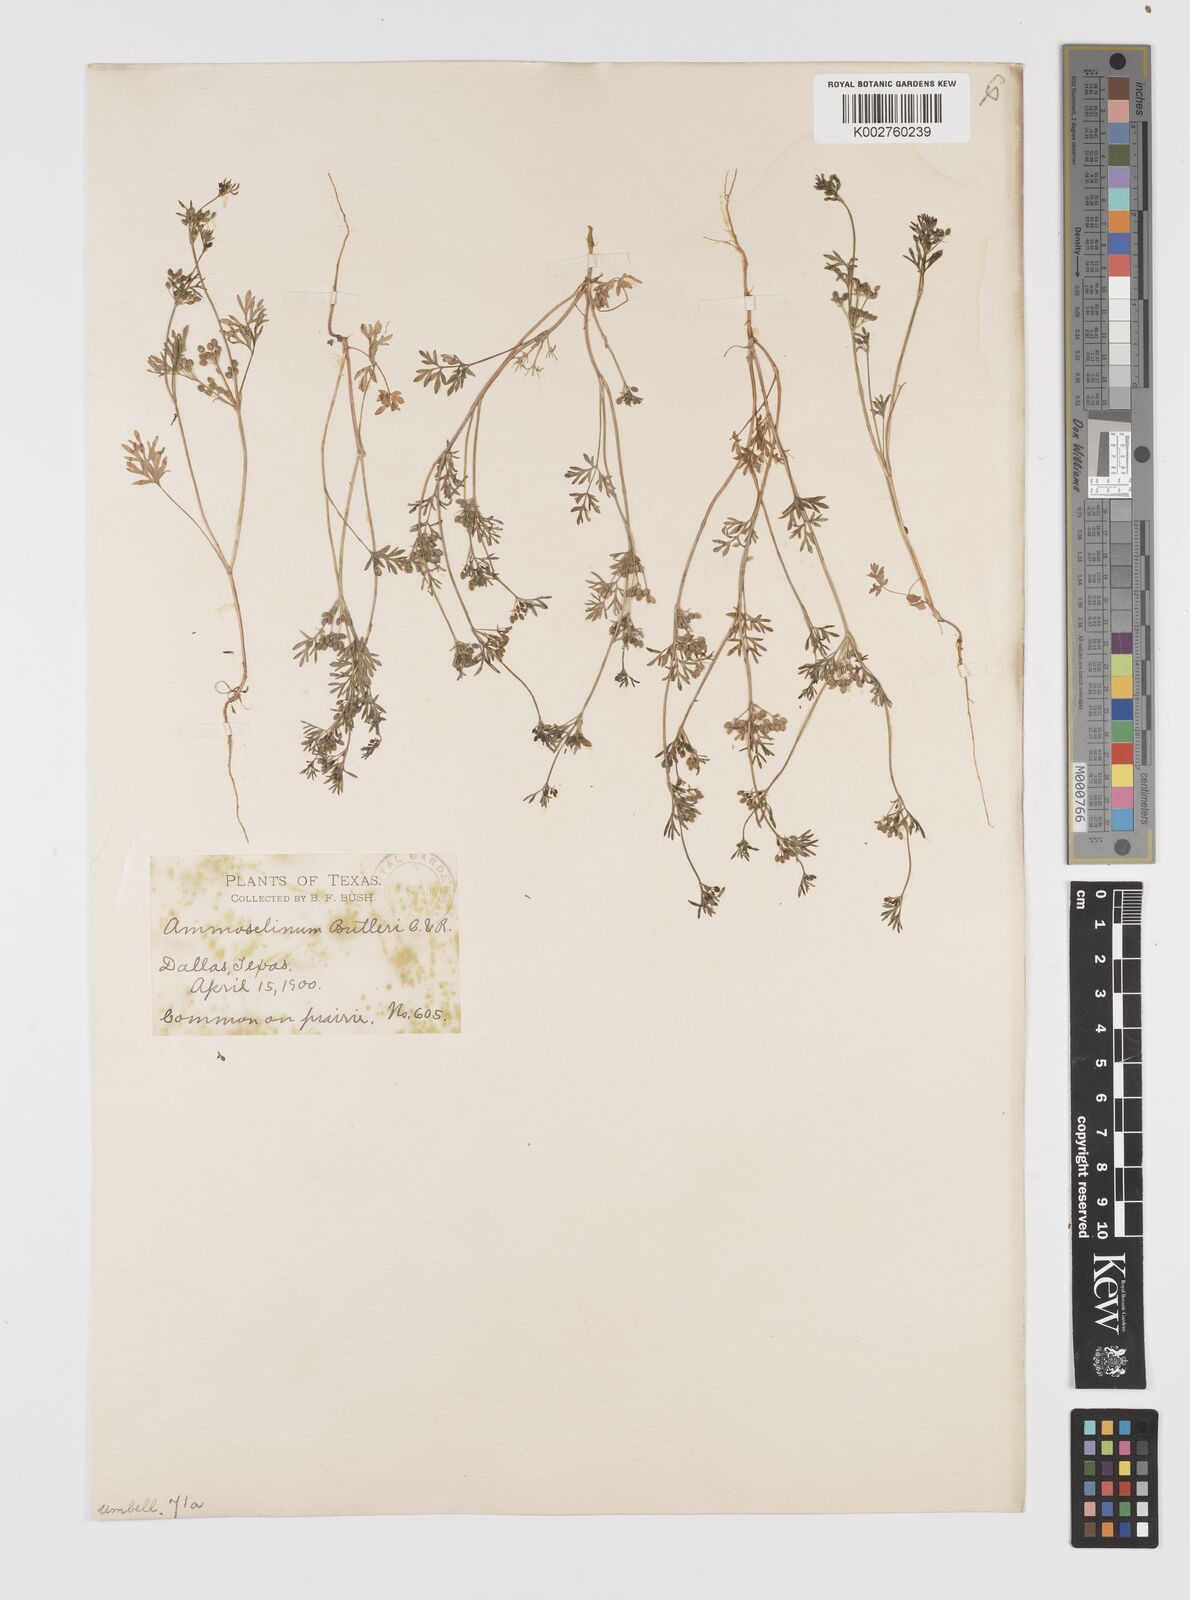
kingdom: Plantae
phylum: Tracheophyta
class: Magnoliopsida
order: Apiales
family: Apiaceae
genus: Ammoselinum
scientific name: Ammoselinum butleri
